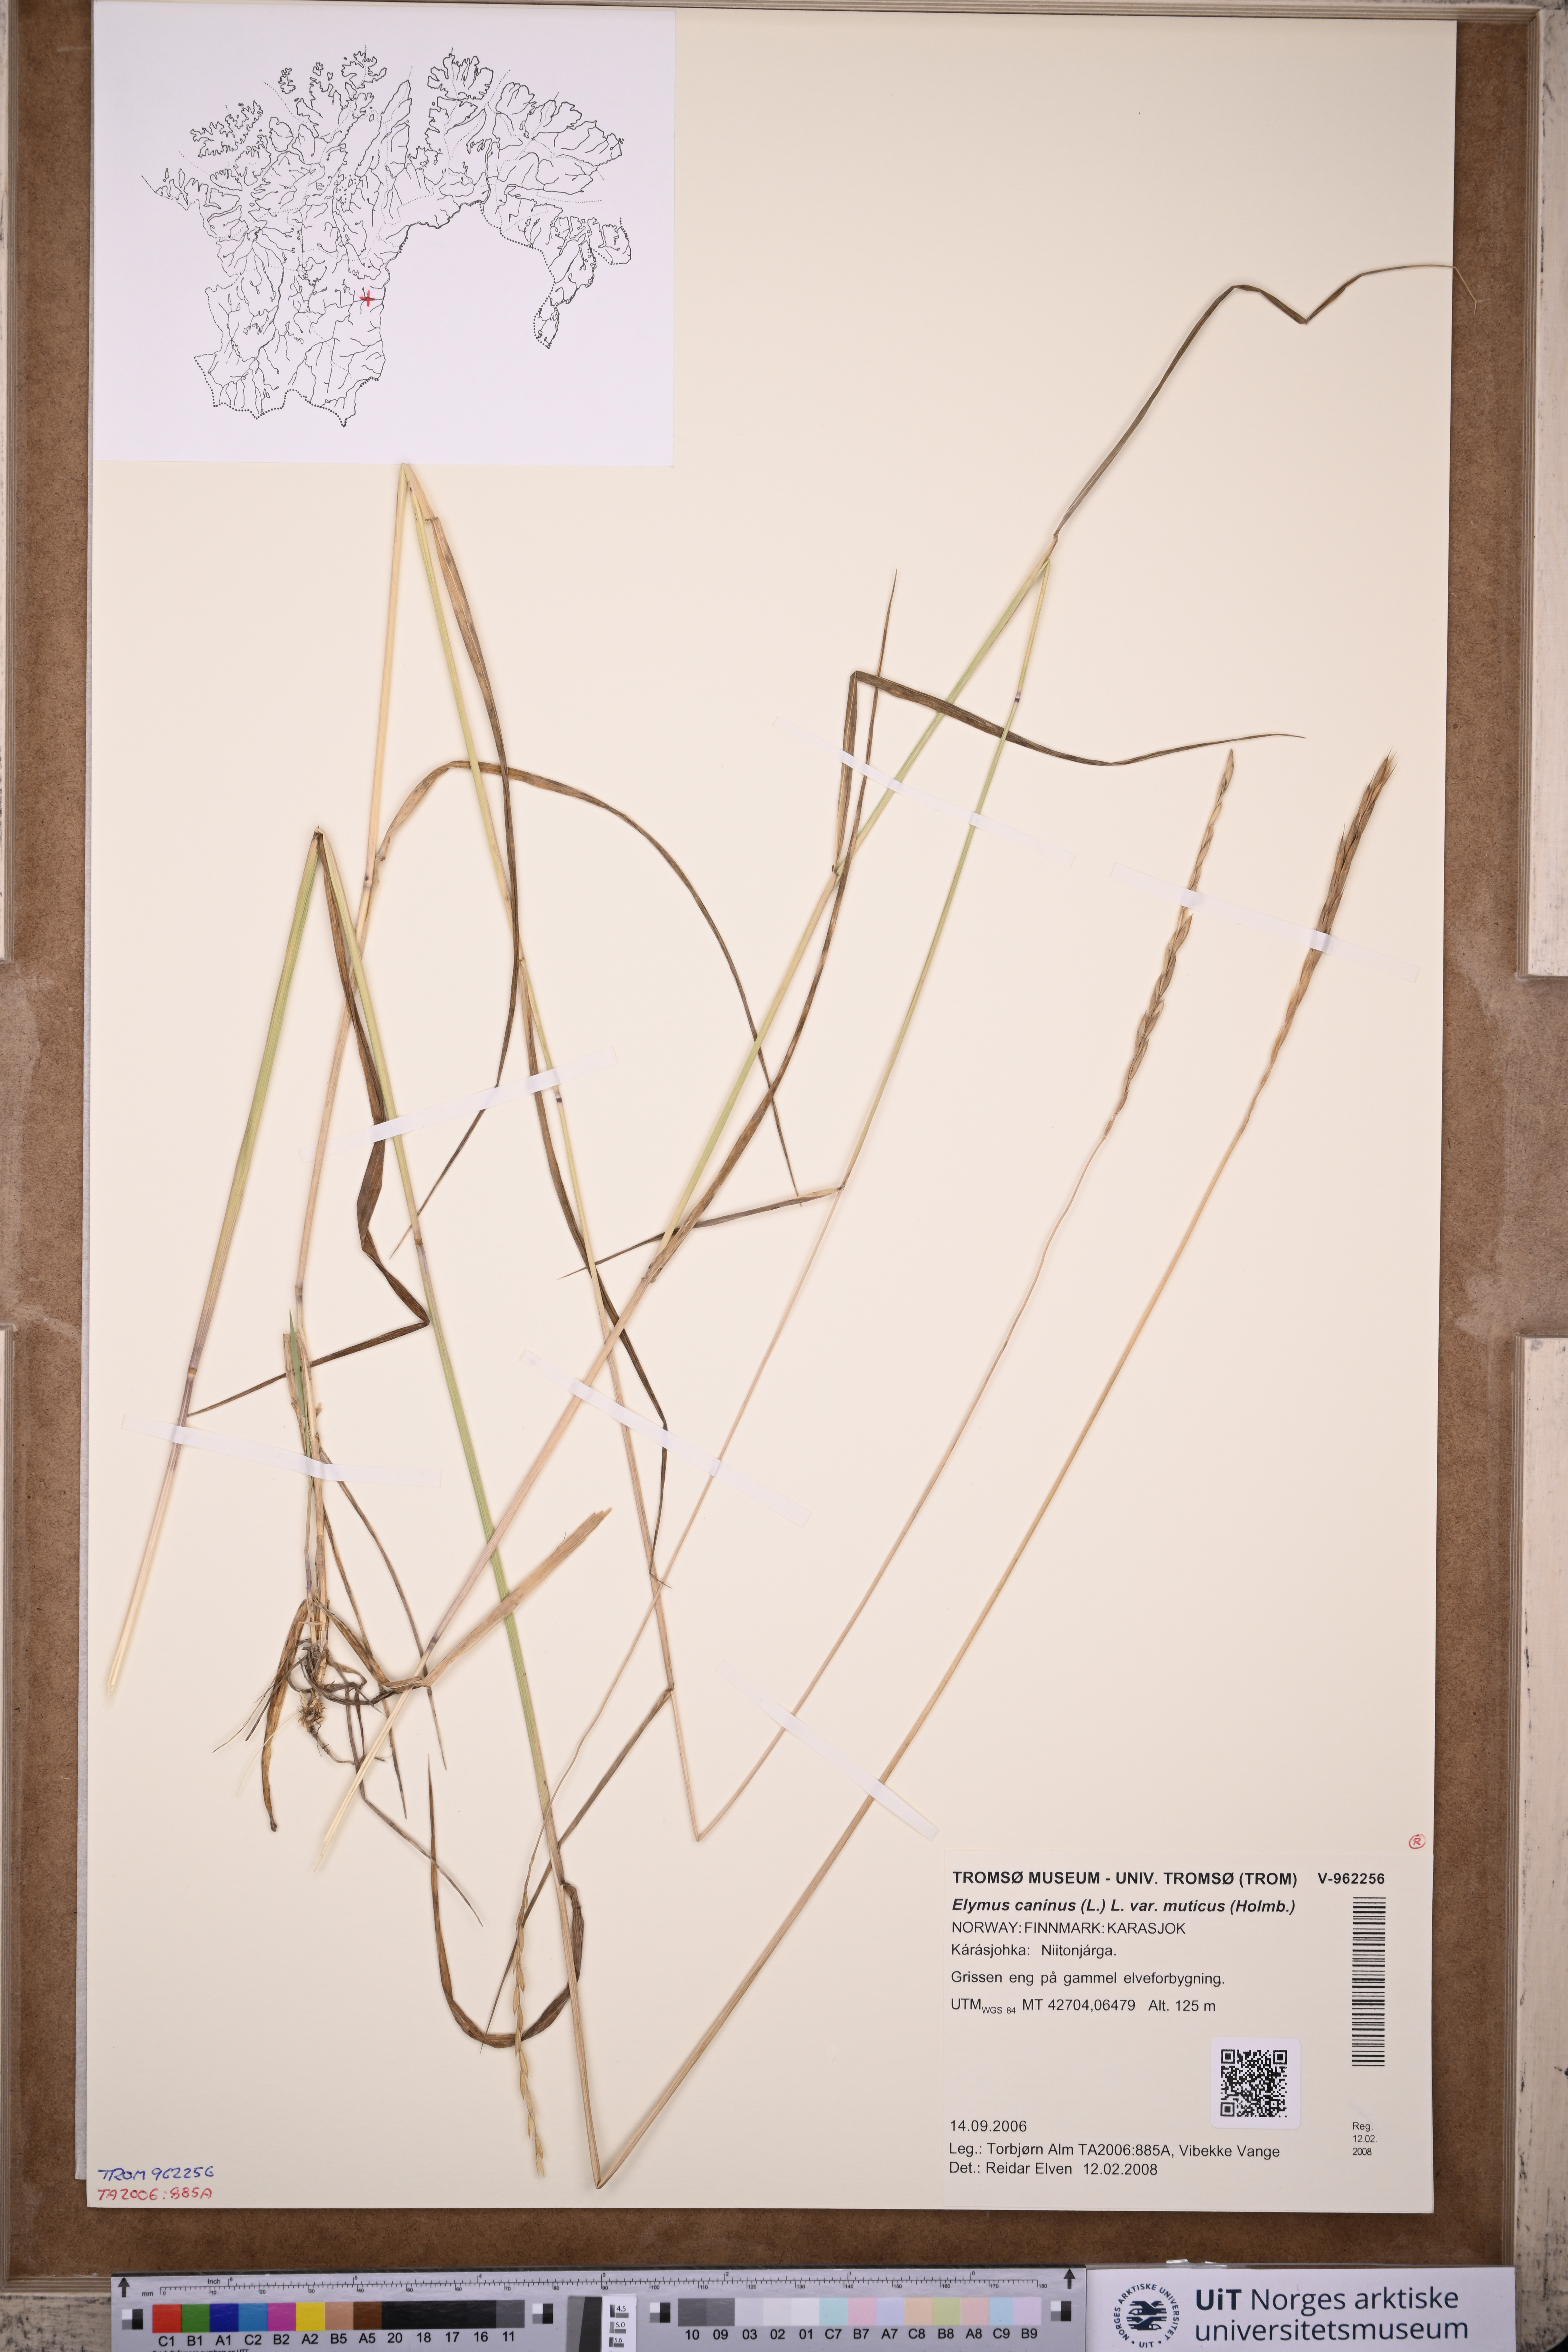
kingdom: Plantae
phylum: Tracheophyta
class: Liliopsida
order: Poales
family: Poaceae
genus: Elymus
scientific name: Elymus caninus
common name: Bearded couch
